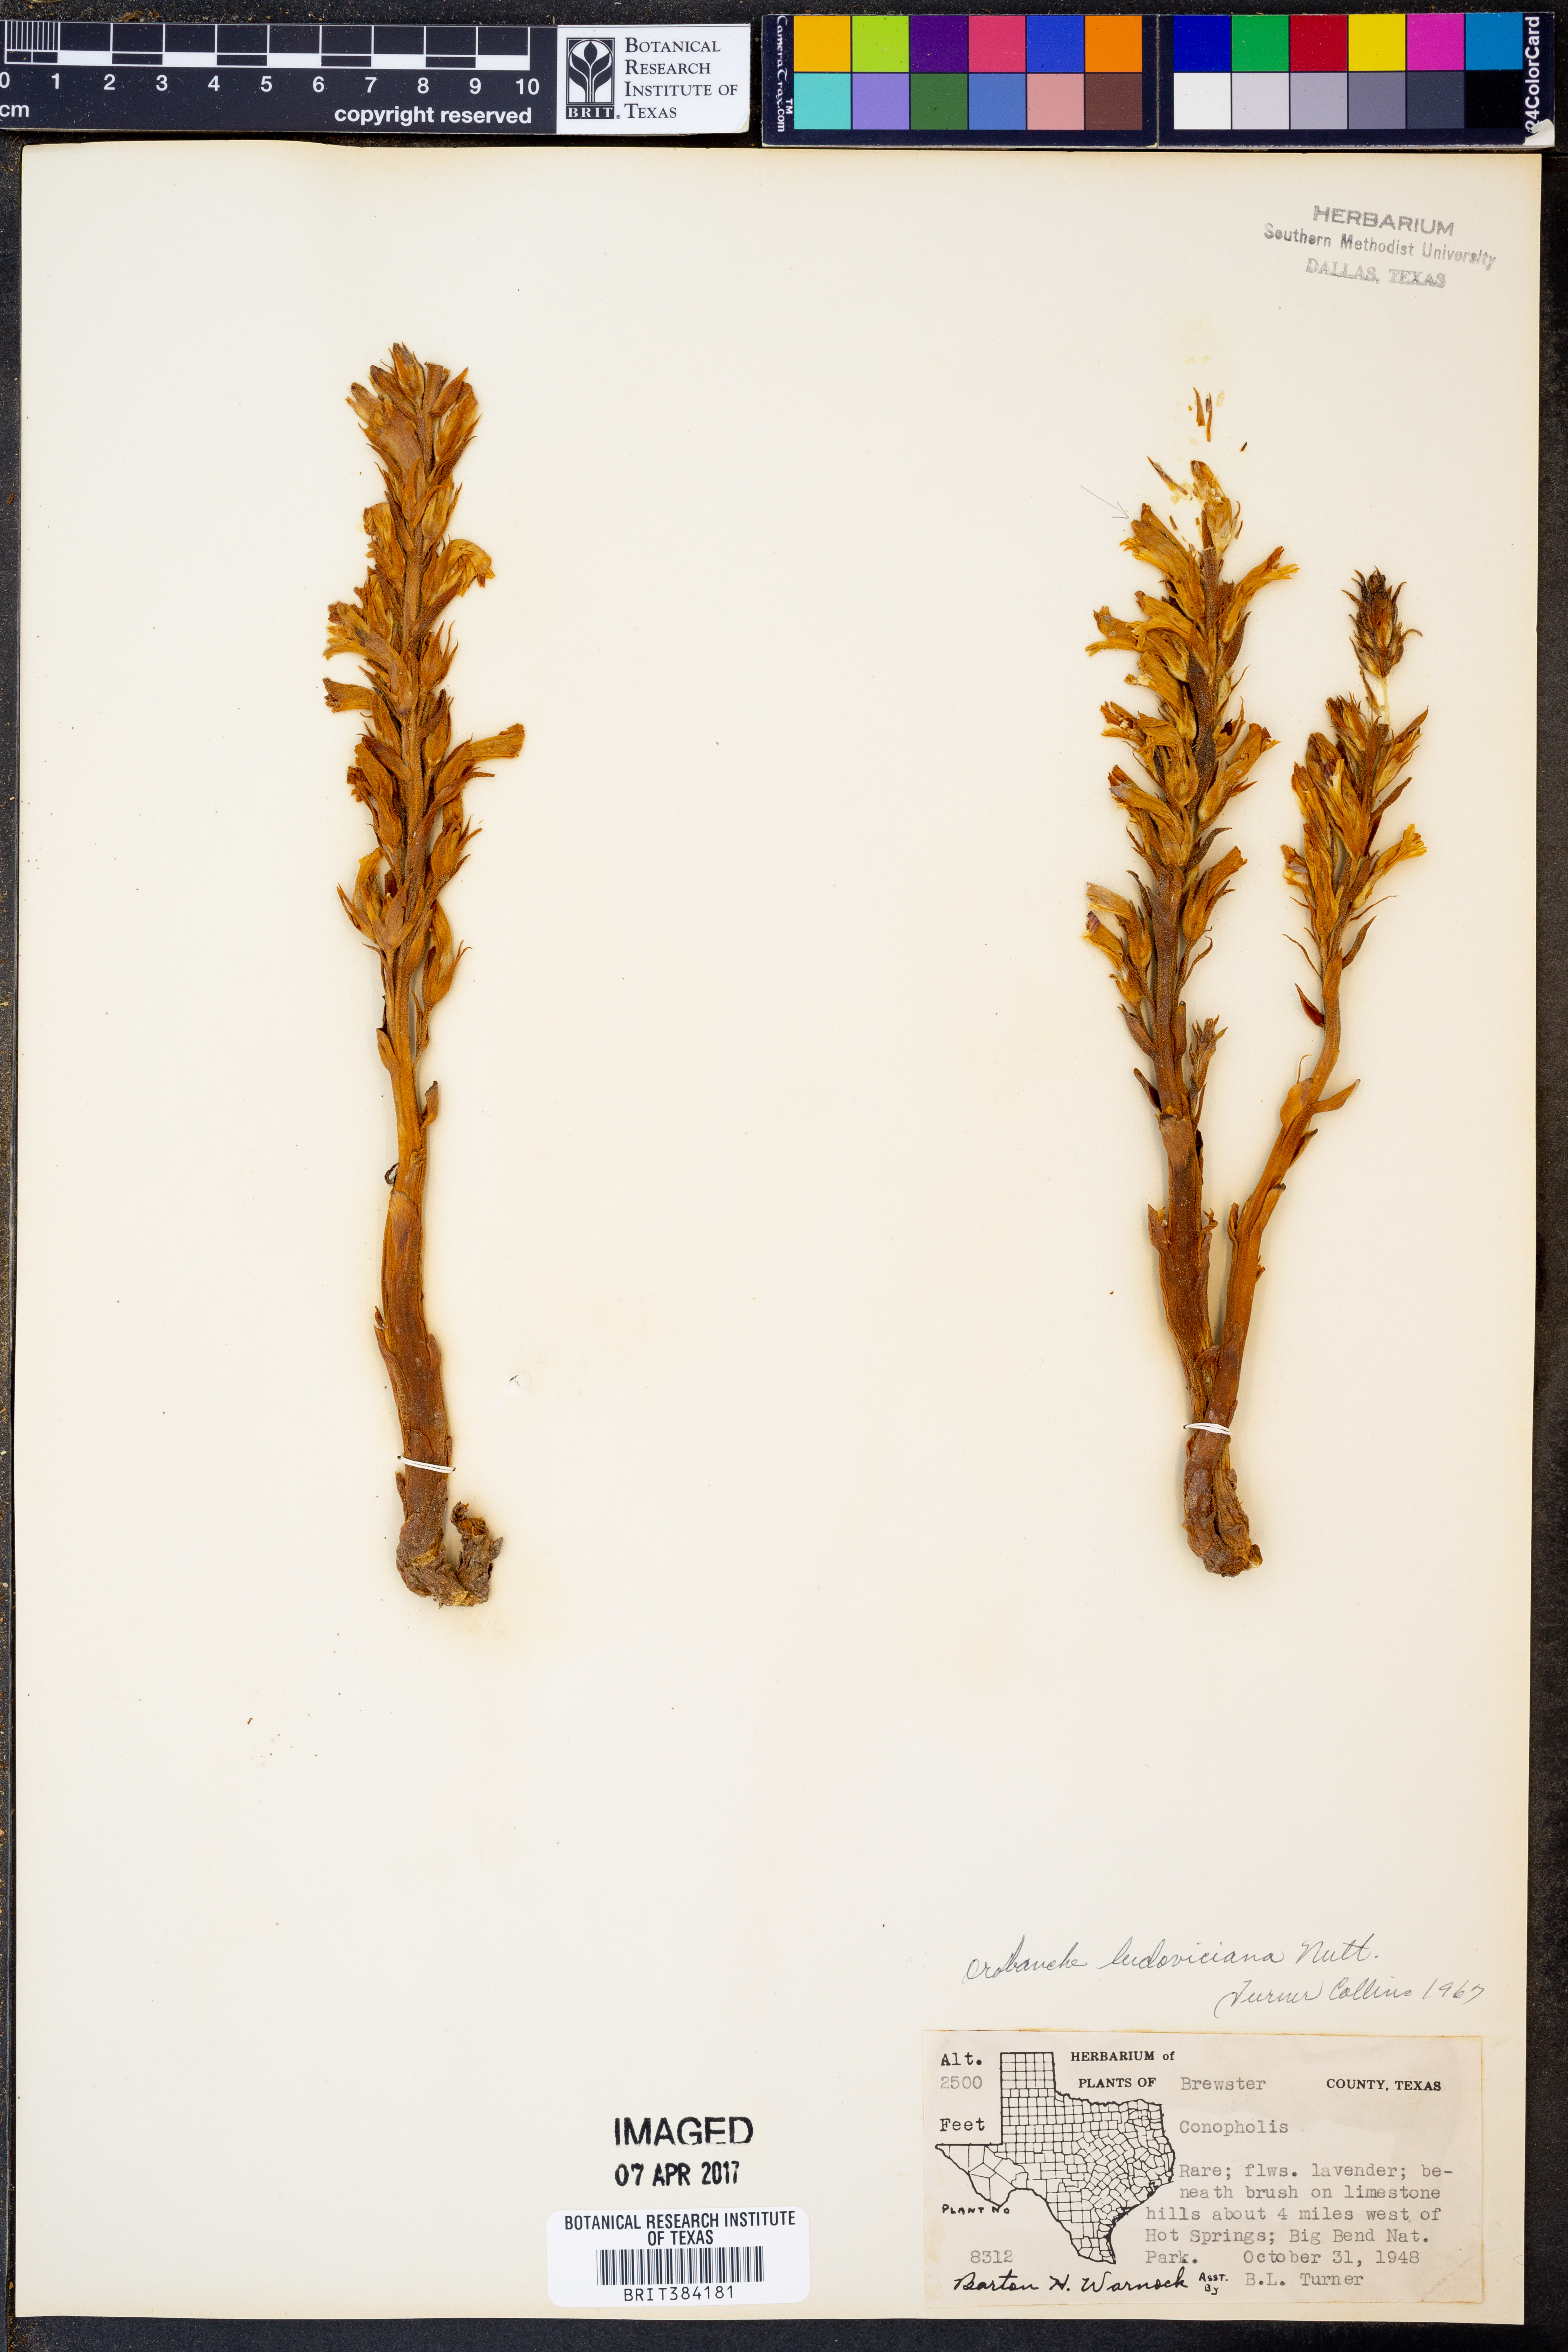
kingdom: Plantae
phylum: Tracheophyta
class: Magnoliopsida
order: Lamiales
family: Orobanchaceae
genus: Aphyllon
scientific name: Aphyllon ludovicianum
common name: Louisiana broomrape
